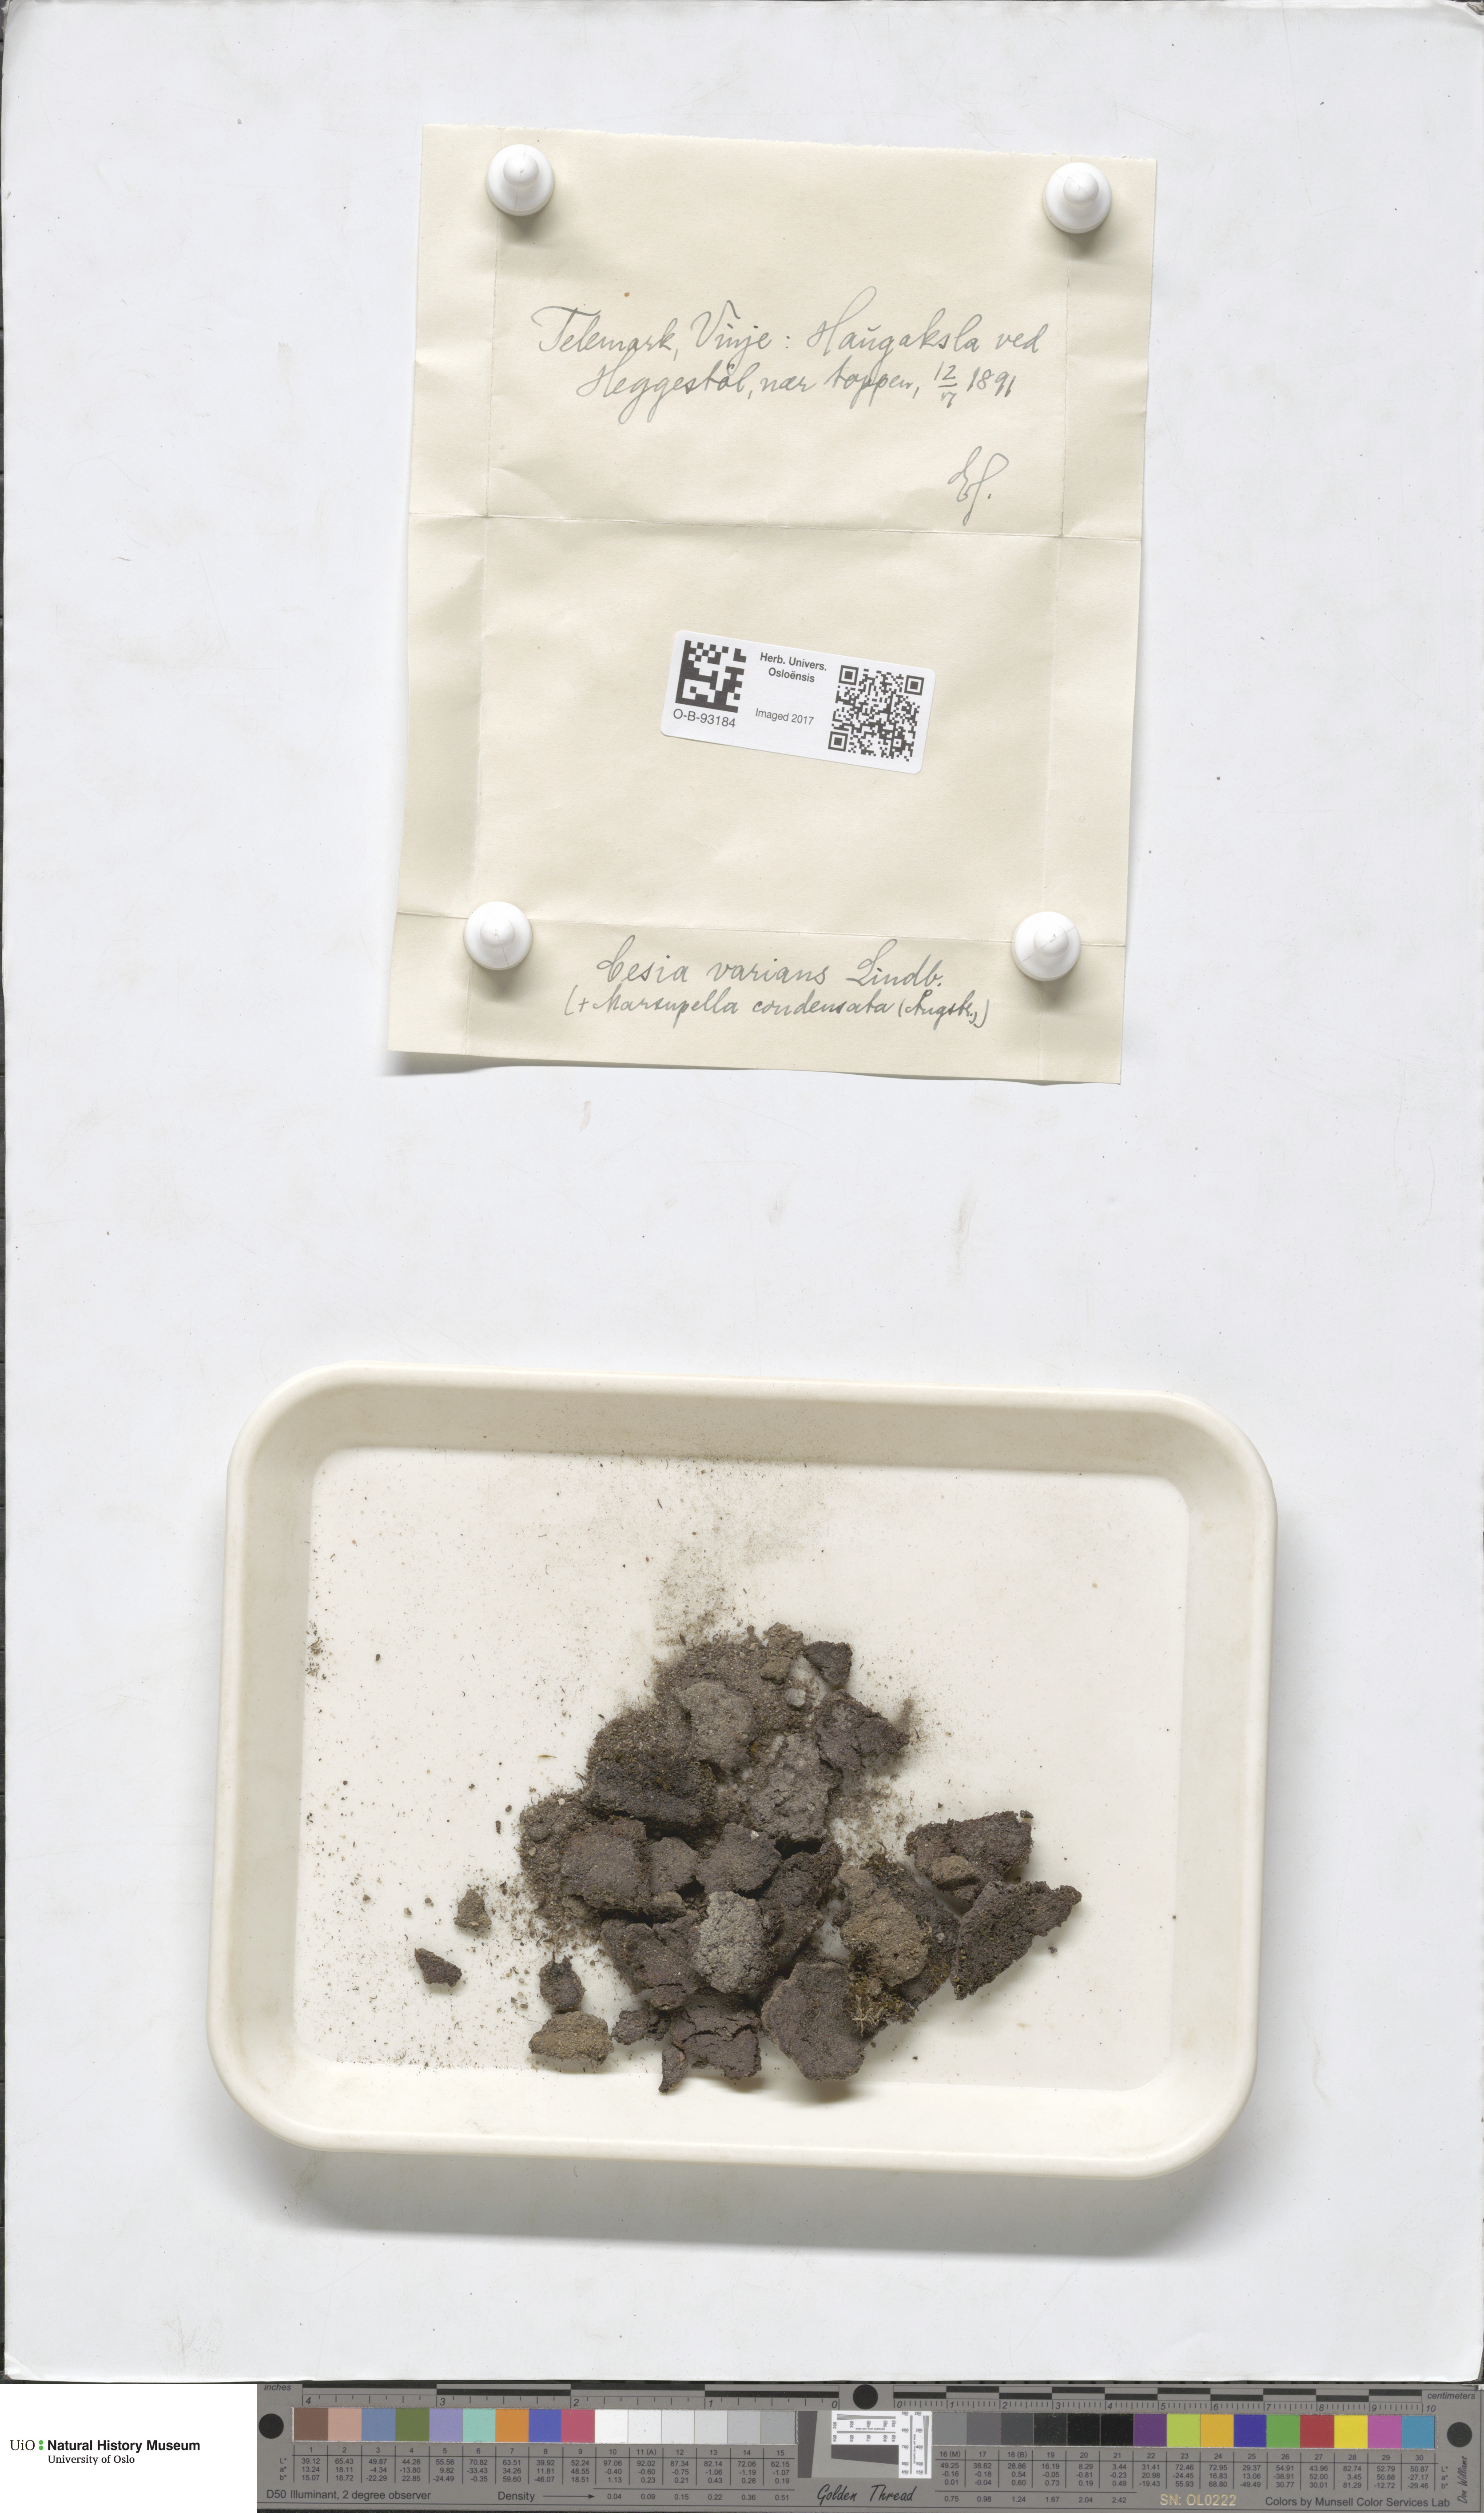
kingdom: Plantae
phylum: Marchantiophyta
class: Jungermanniopsida
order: Jungermanniales
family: Gymnomitriaceae
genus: Gymnomitrion
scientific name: Gymnomitrion brevissimum
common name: Snow rustwort
